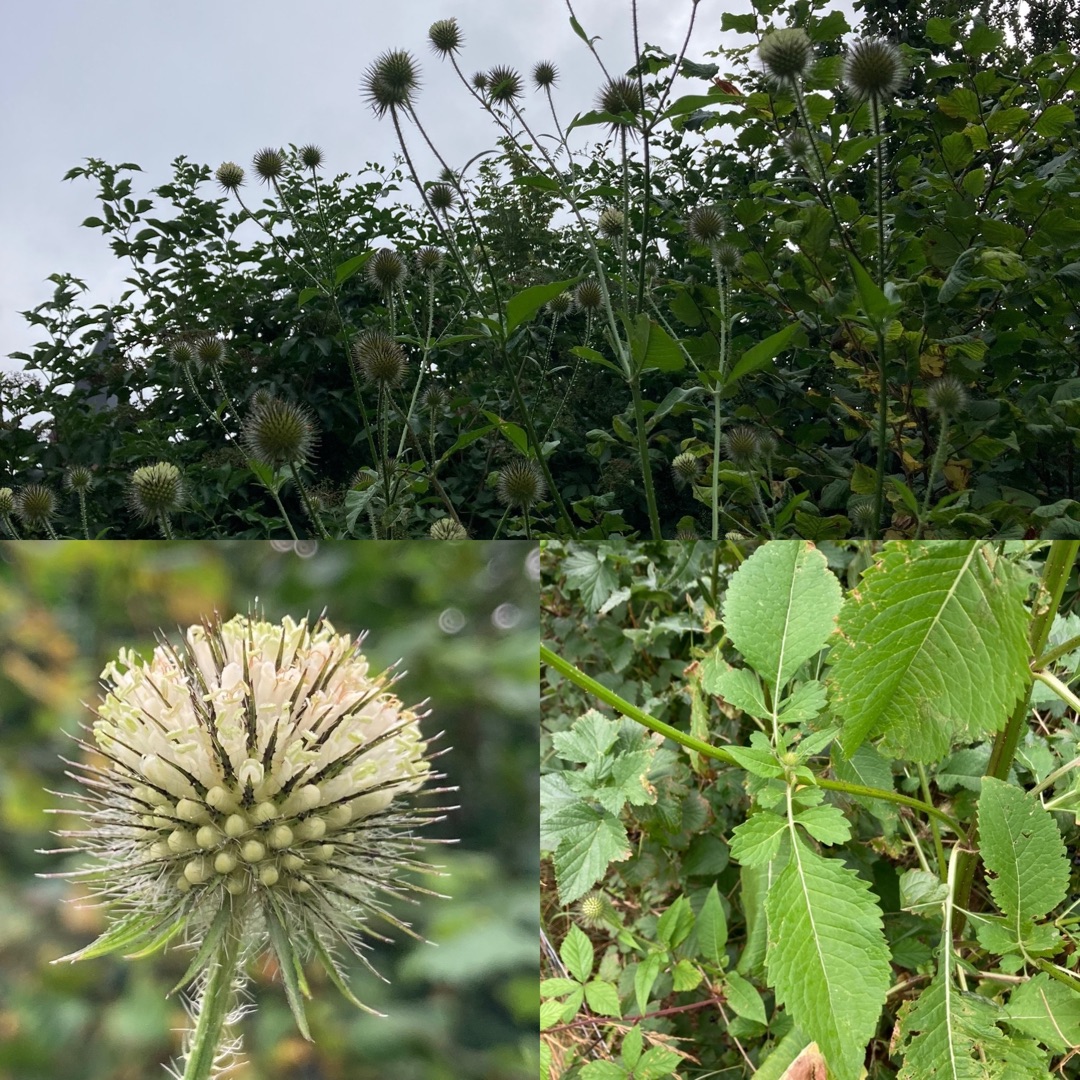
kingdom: Plantae
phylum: Tracheophyta
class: Magnoliopsida
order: Dipsacales
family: Caprifoliaceae
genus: Dipsacus
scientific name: Dipsacus strigosus
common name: Pindsvin-kartebolle
